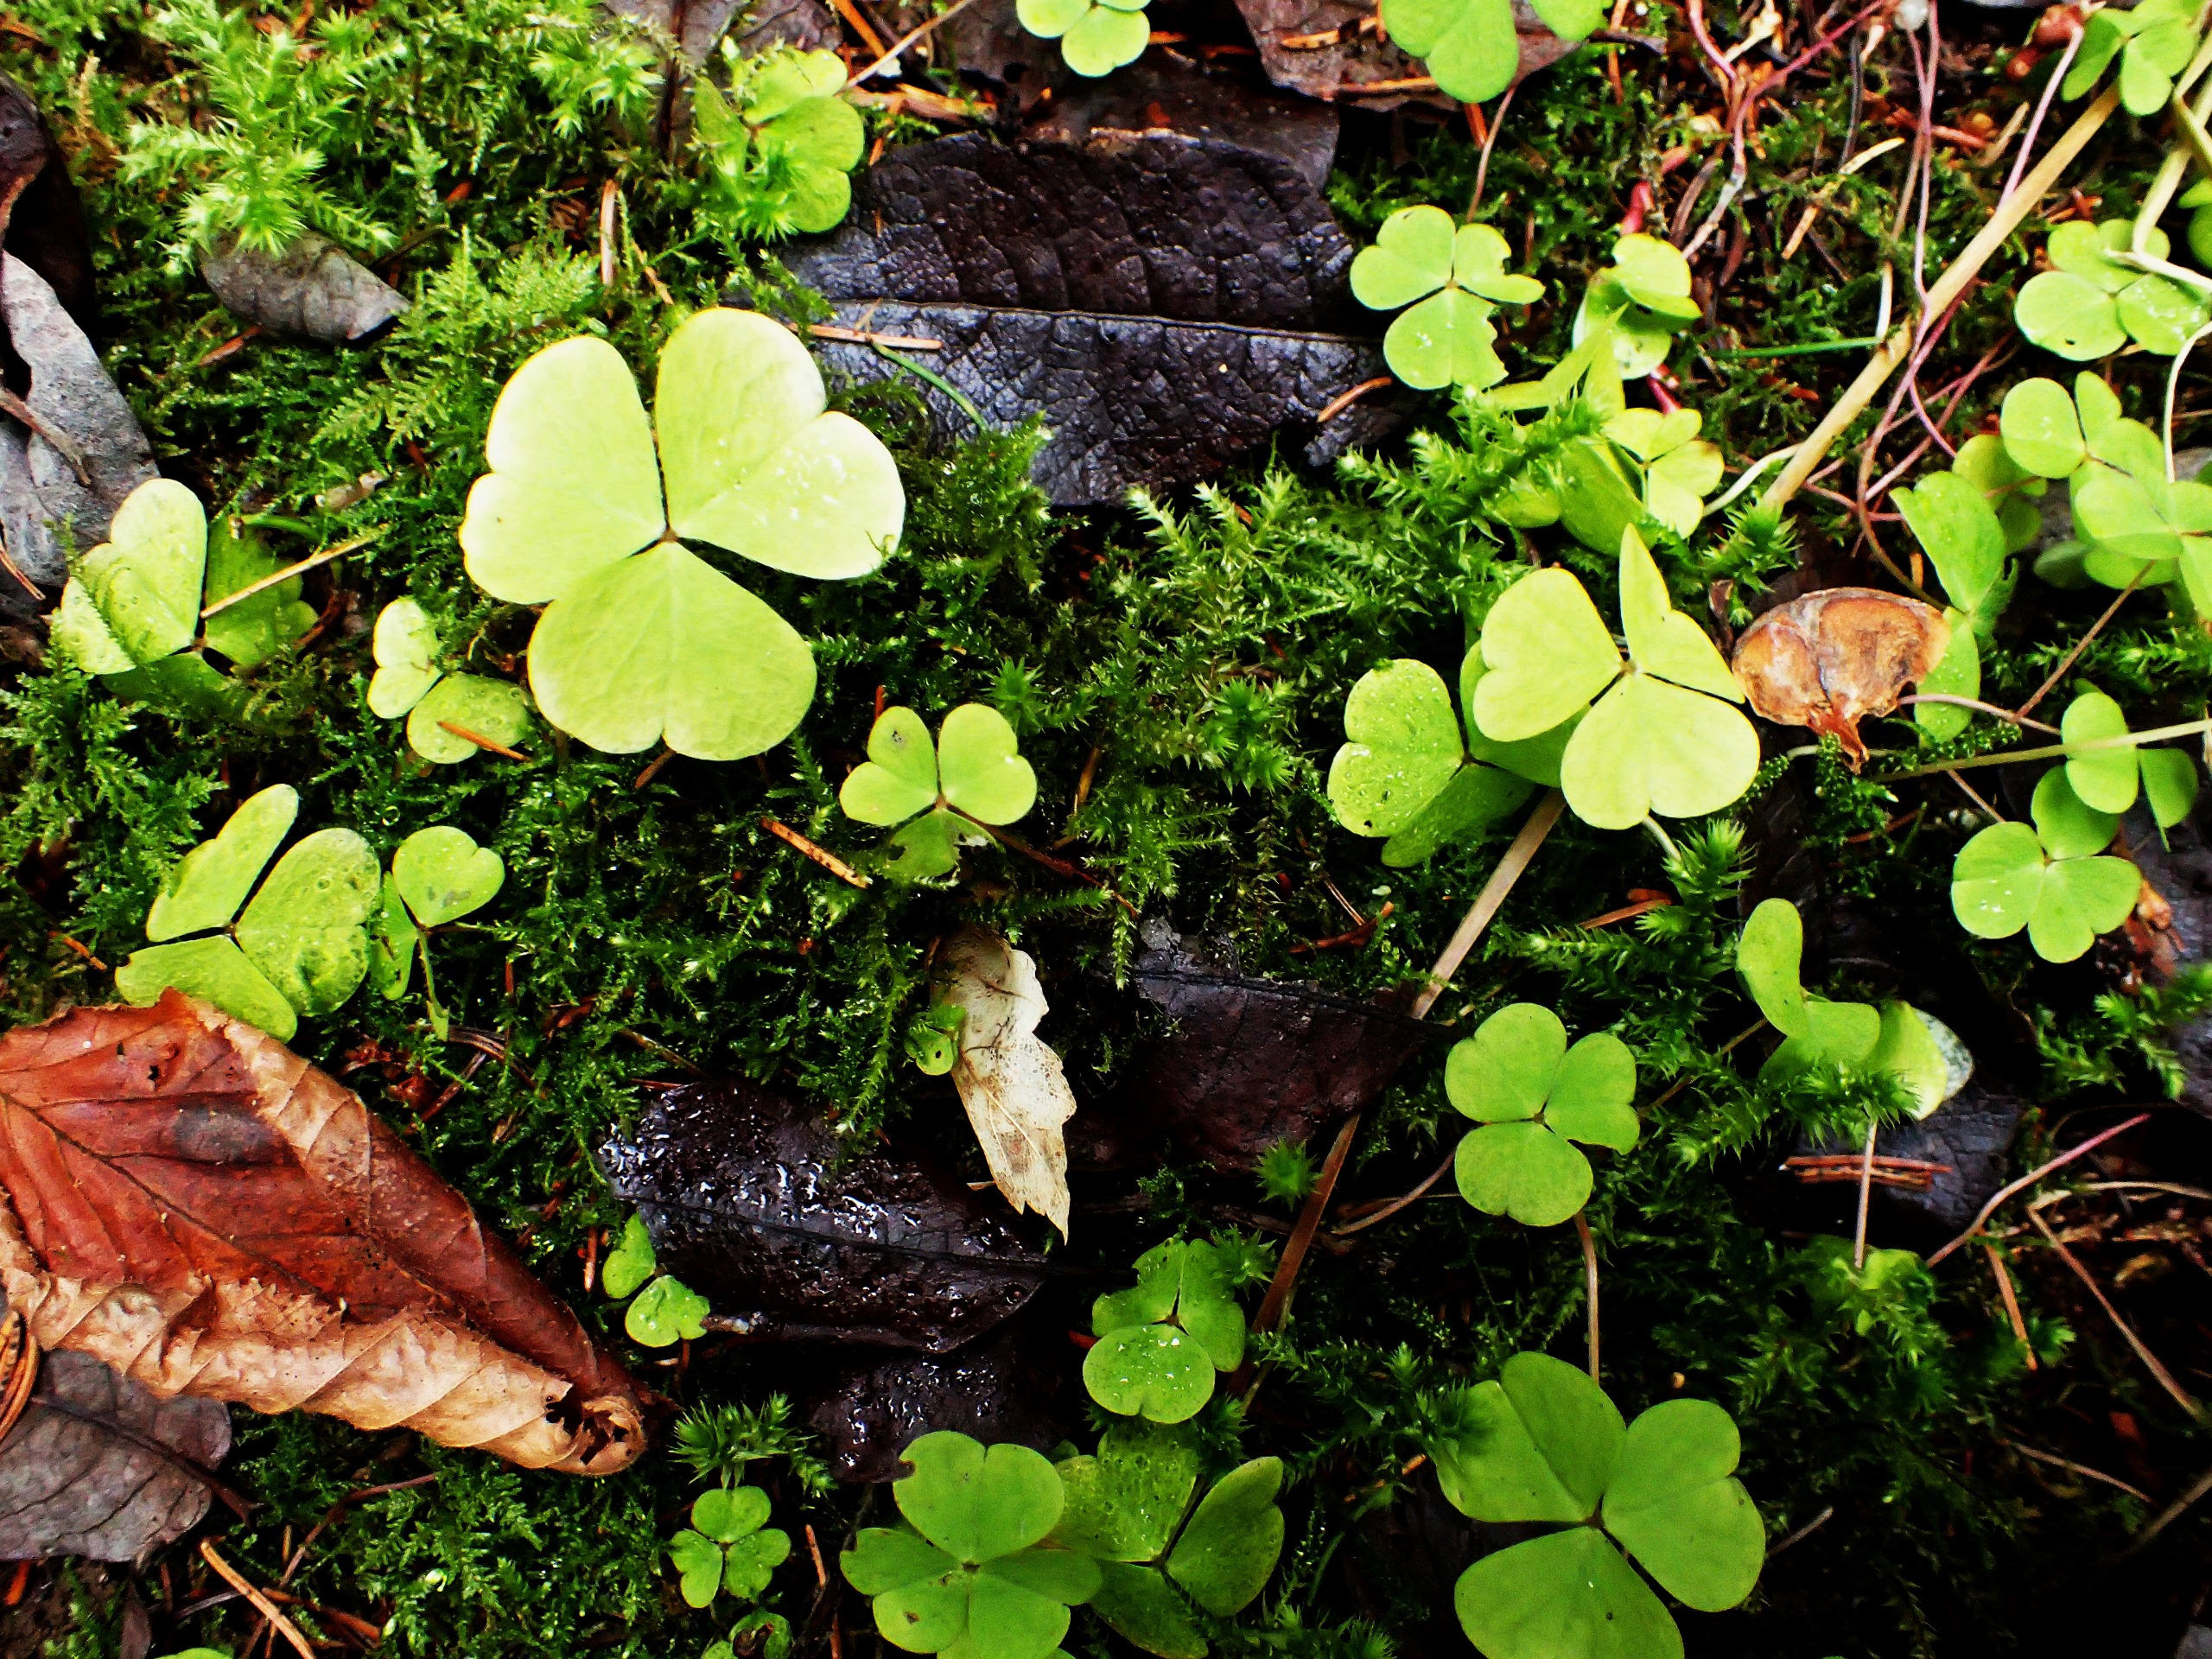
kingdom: Plantae
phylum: Tracheophyta
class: Magnoliopsida
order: Oxalidales
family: Oxalidaceae
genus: Oxalis
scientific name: Oxalis acetosella
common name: Skovsyre
